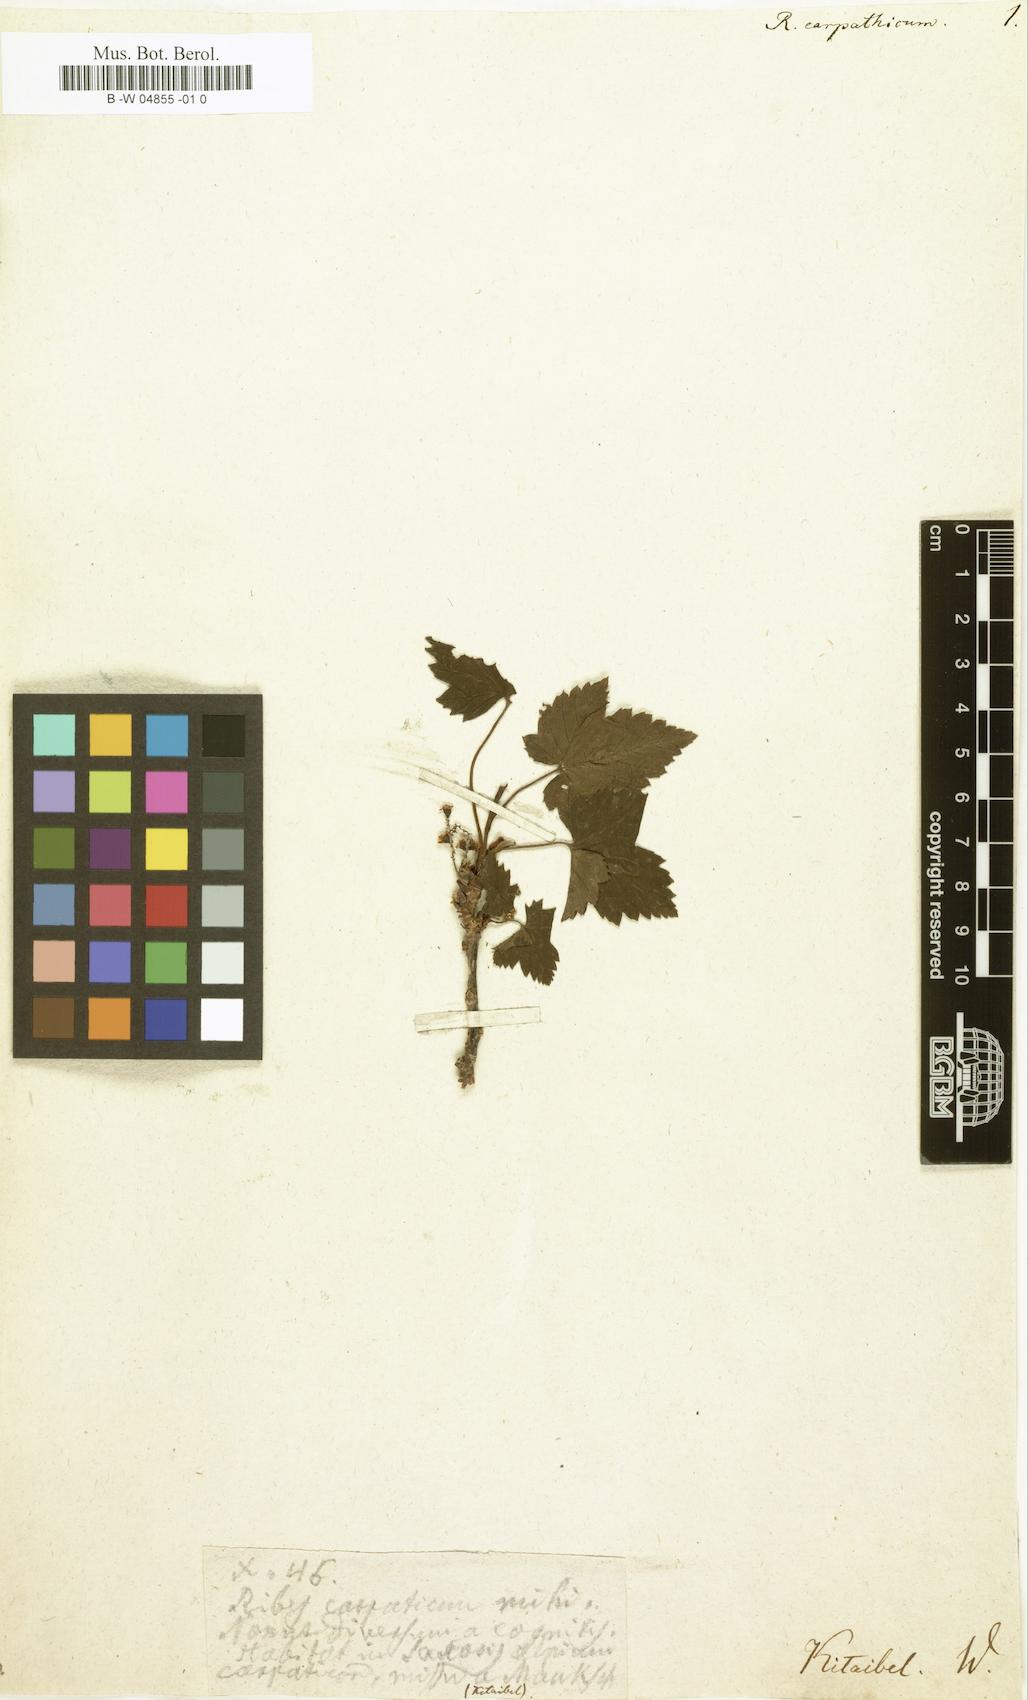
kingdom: Plantae
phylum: Tracheophyta
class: Magnoliopsida
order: Saxifragales
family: Grossulariaceae
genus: Ribes
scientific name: Ribes petraeum
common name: Rock currant
